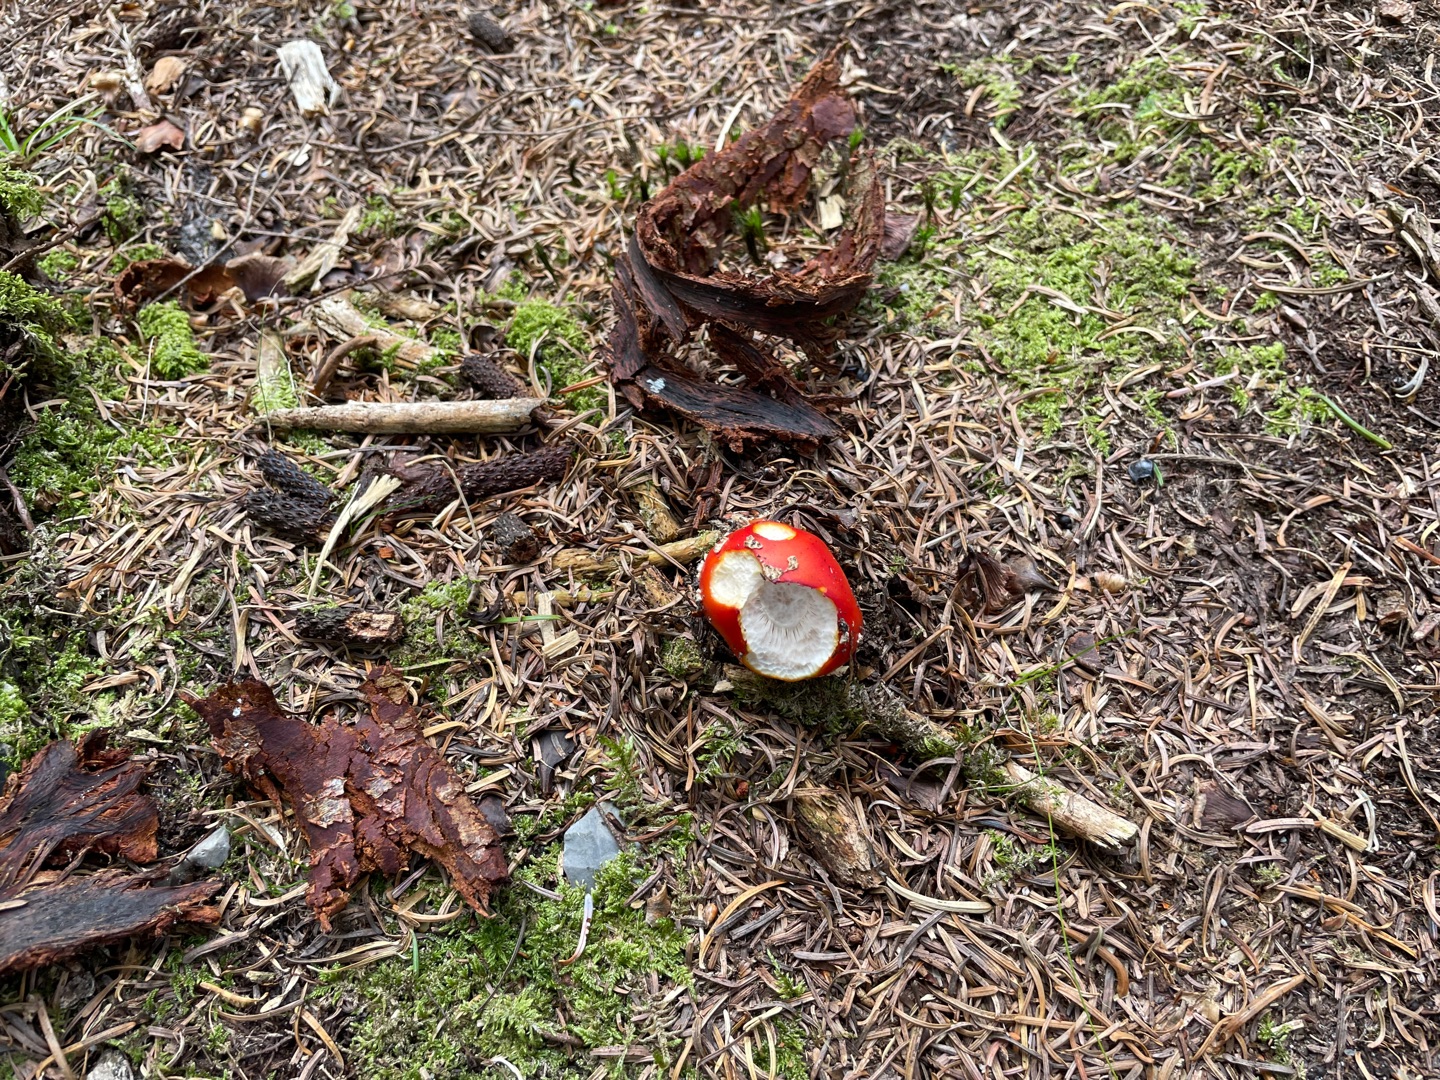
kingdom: Fungi
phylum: Basidiomycota
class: Agaricomycetes
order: Agaricales
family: Amanitaceae
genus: Amanita
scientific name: Amanita muscaria
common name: Rød fluesvamp
